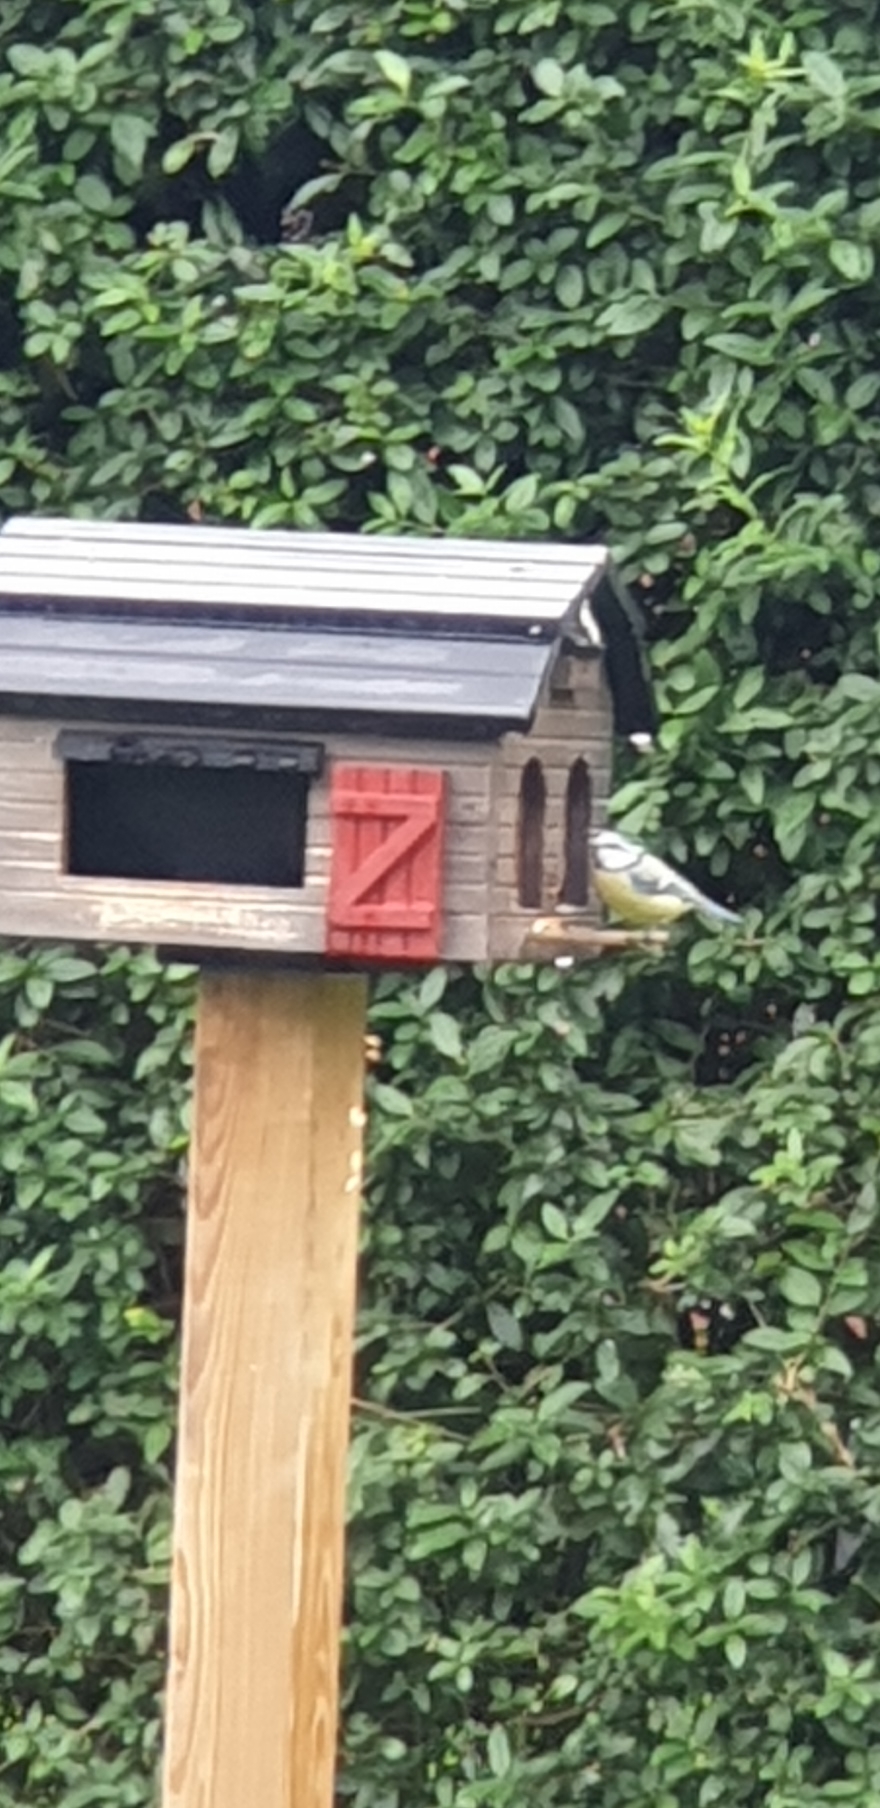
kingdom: Animalia
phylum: Chordata
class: Aves
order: Passeriformes
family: Paridae
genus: Cyanistes
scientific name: Cyanistes caeruleus
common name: Blåmejse
